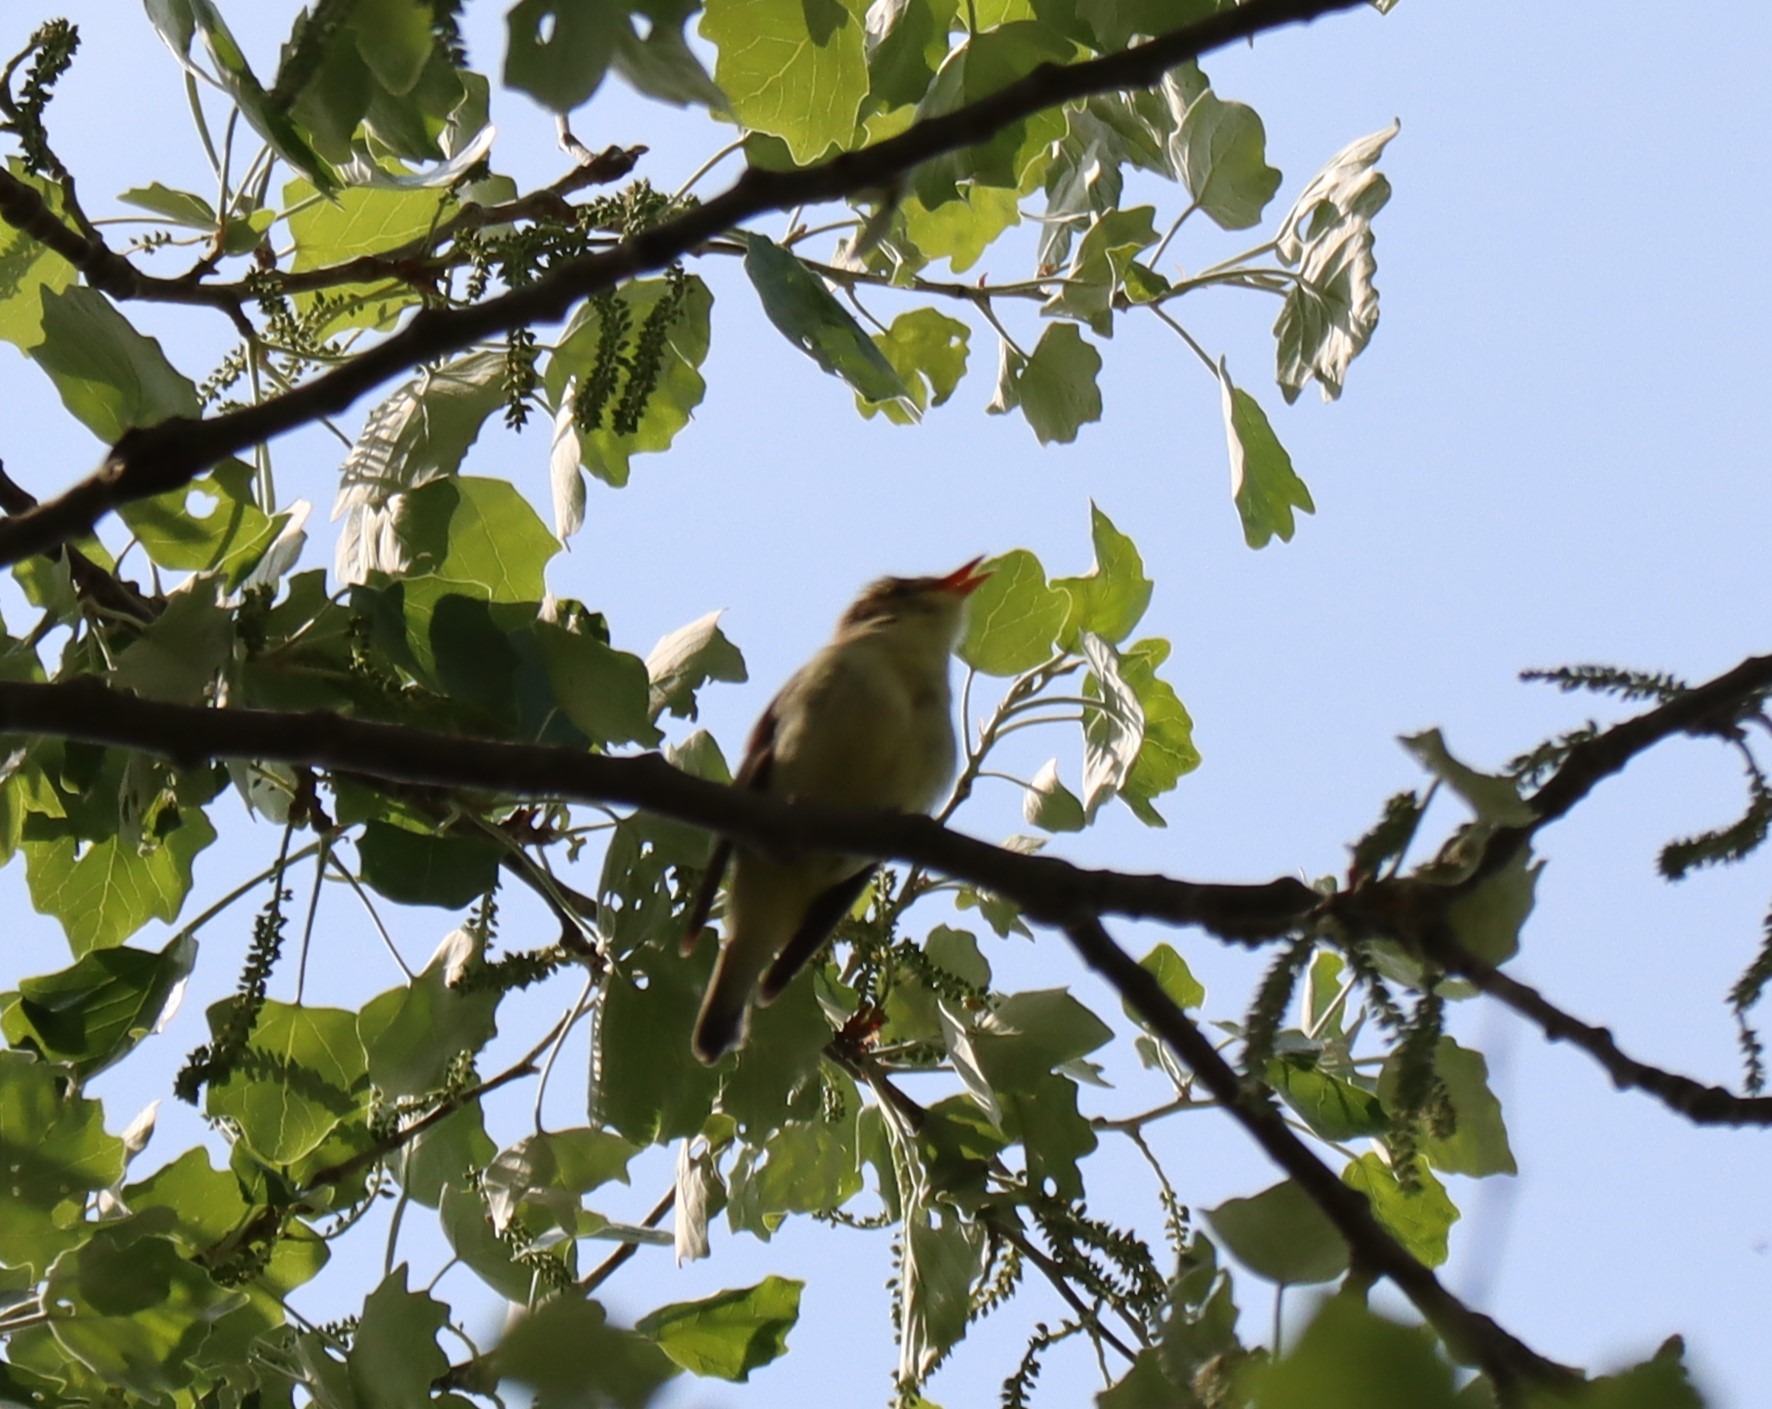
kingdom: Animalia
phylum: Chordata
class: Aves
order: Passeriformes
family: Acrocephalidae
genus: Hippolais
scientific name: Hippolais icterina
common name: Gulbug
